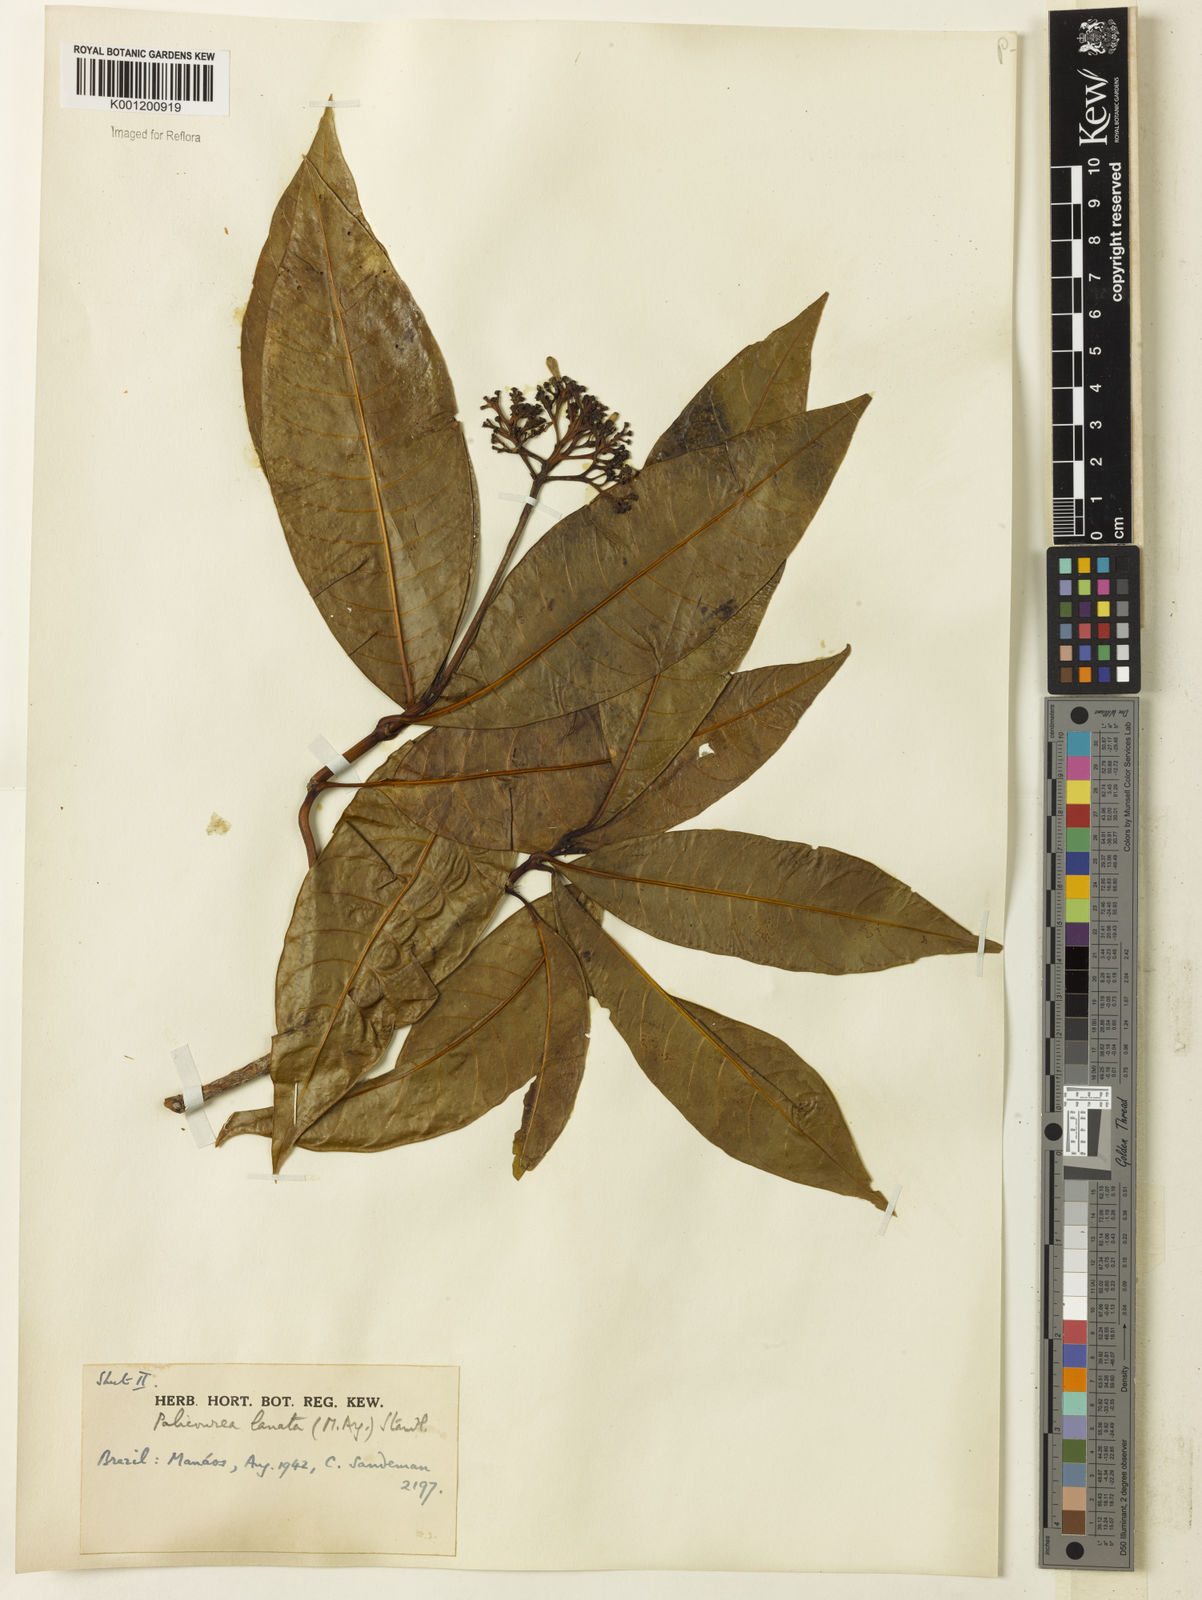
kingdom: Plantae
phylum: Tracheophyta
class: Magnoliopsida
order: Gentianales
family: Rubiaceae
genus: Palicourea
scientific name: Palicourea
